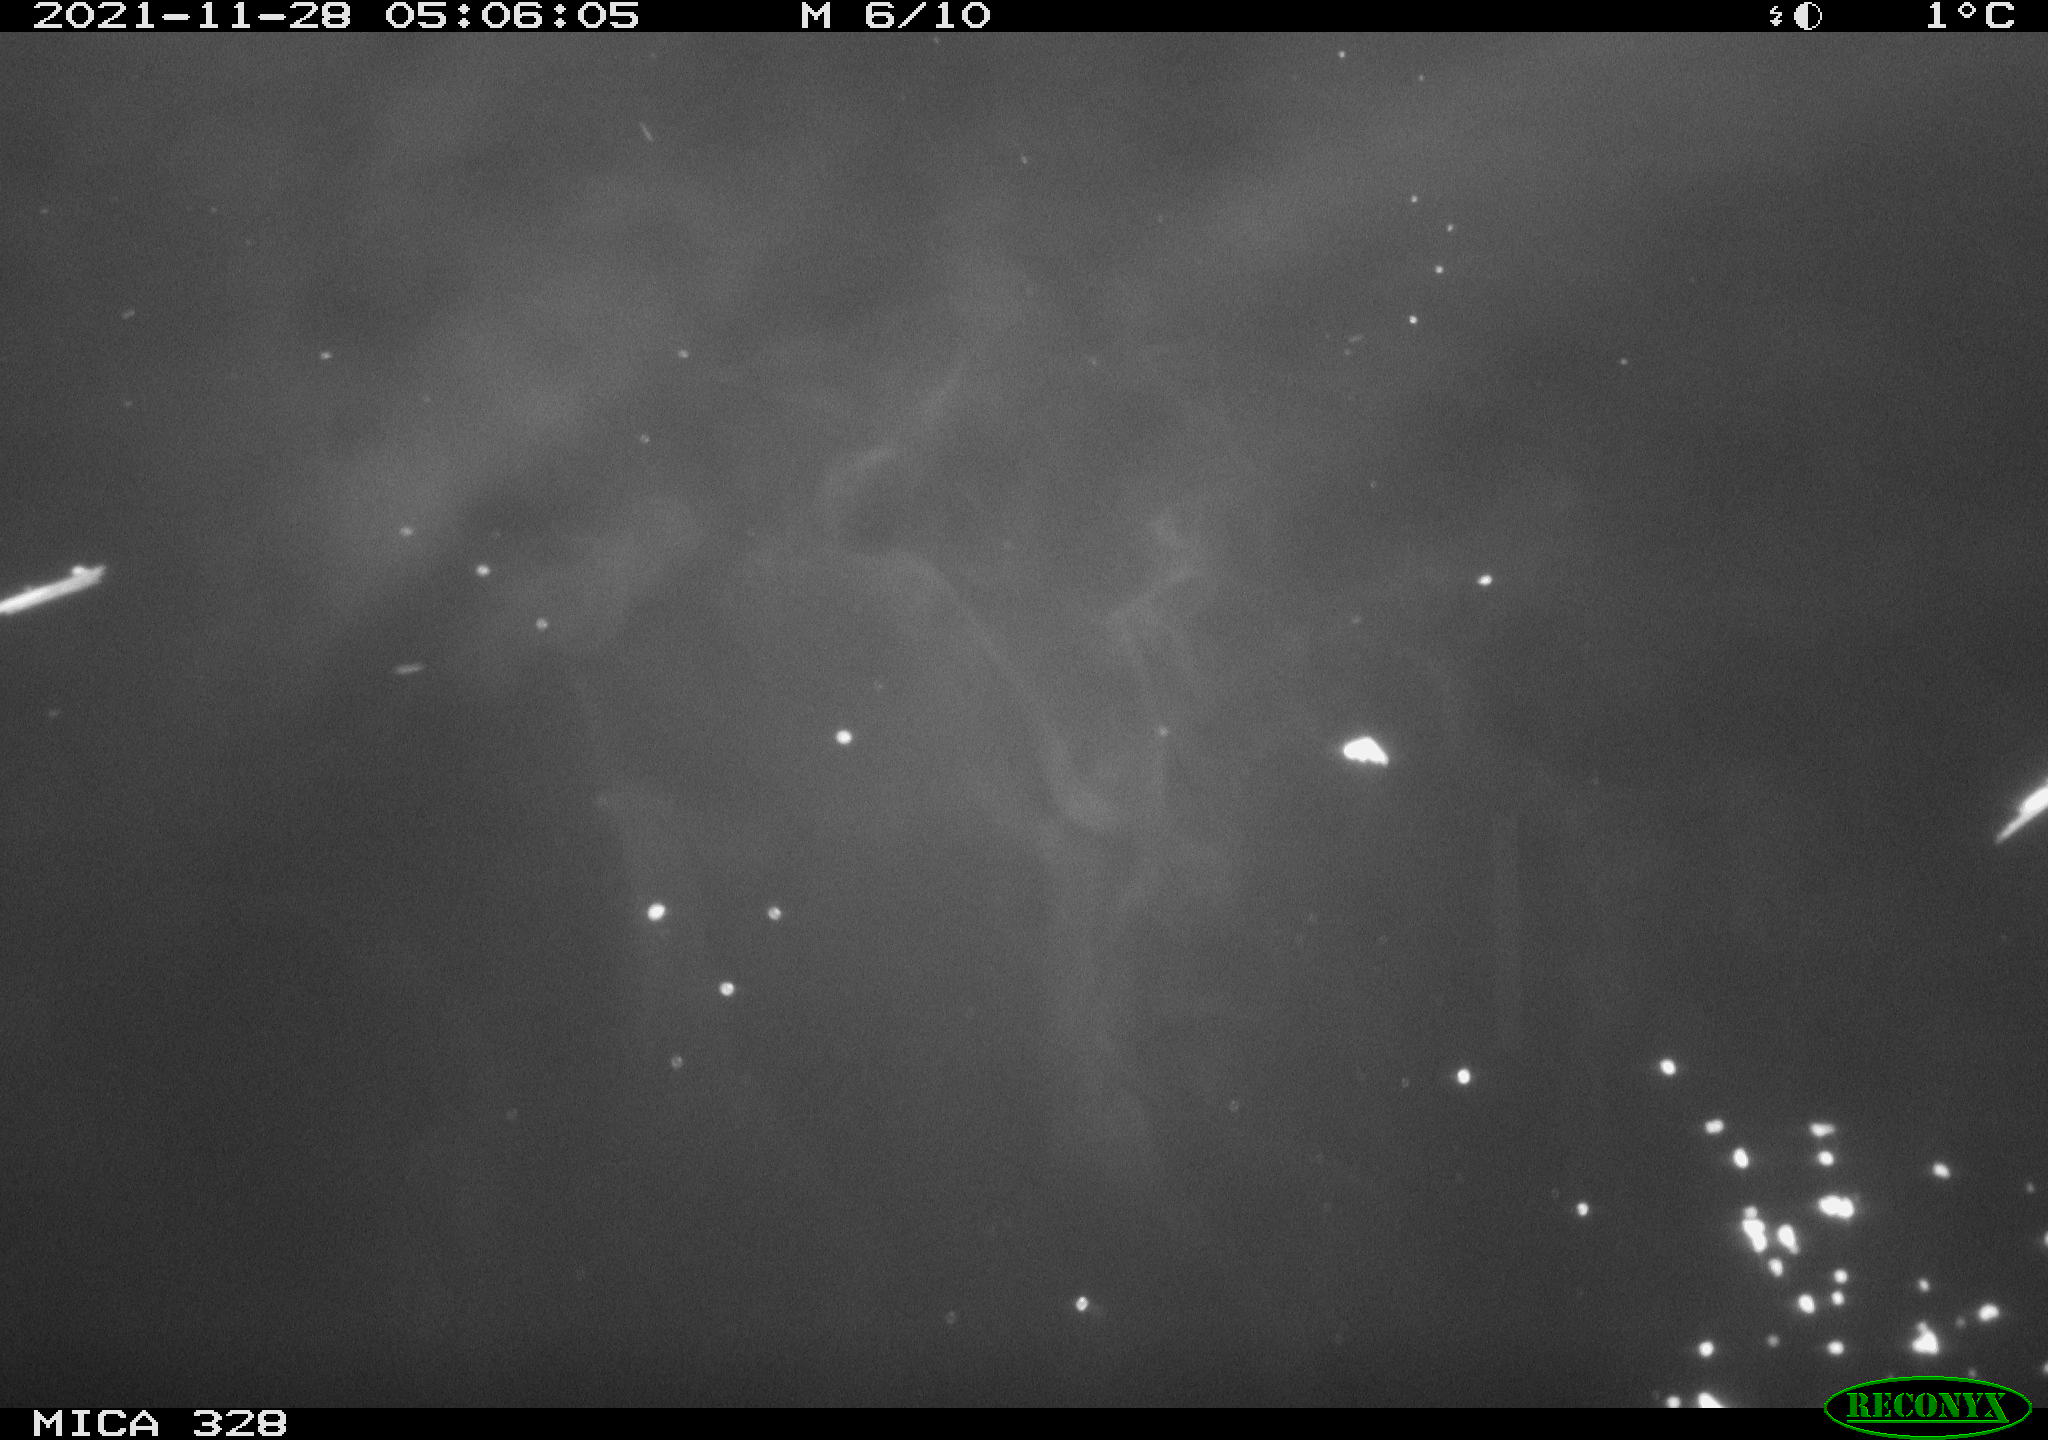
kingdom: Animalia
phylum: Chordata
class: Mammalia
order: Rodentia
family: Muridae
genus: Rattus
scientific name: Rattus norvegicus
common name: Brown rat
